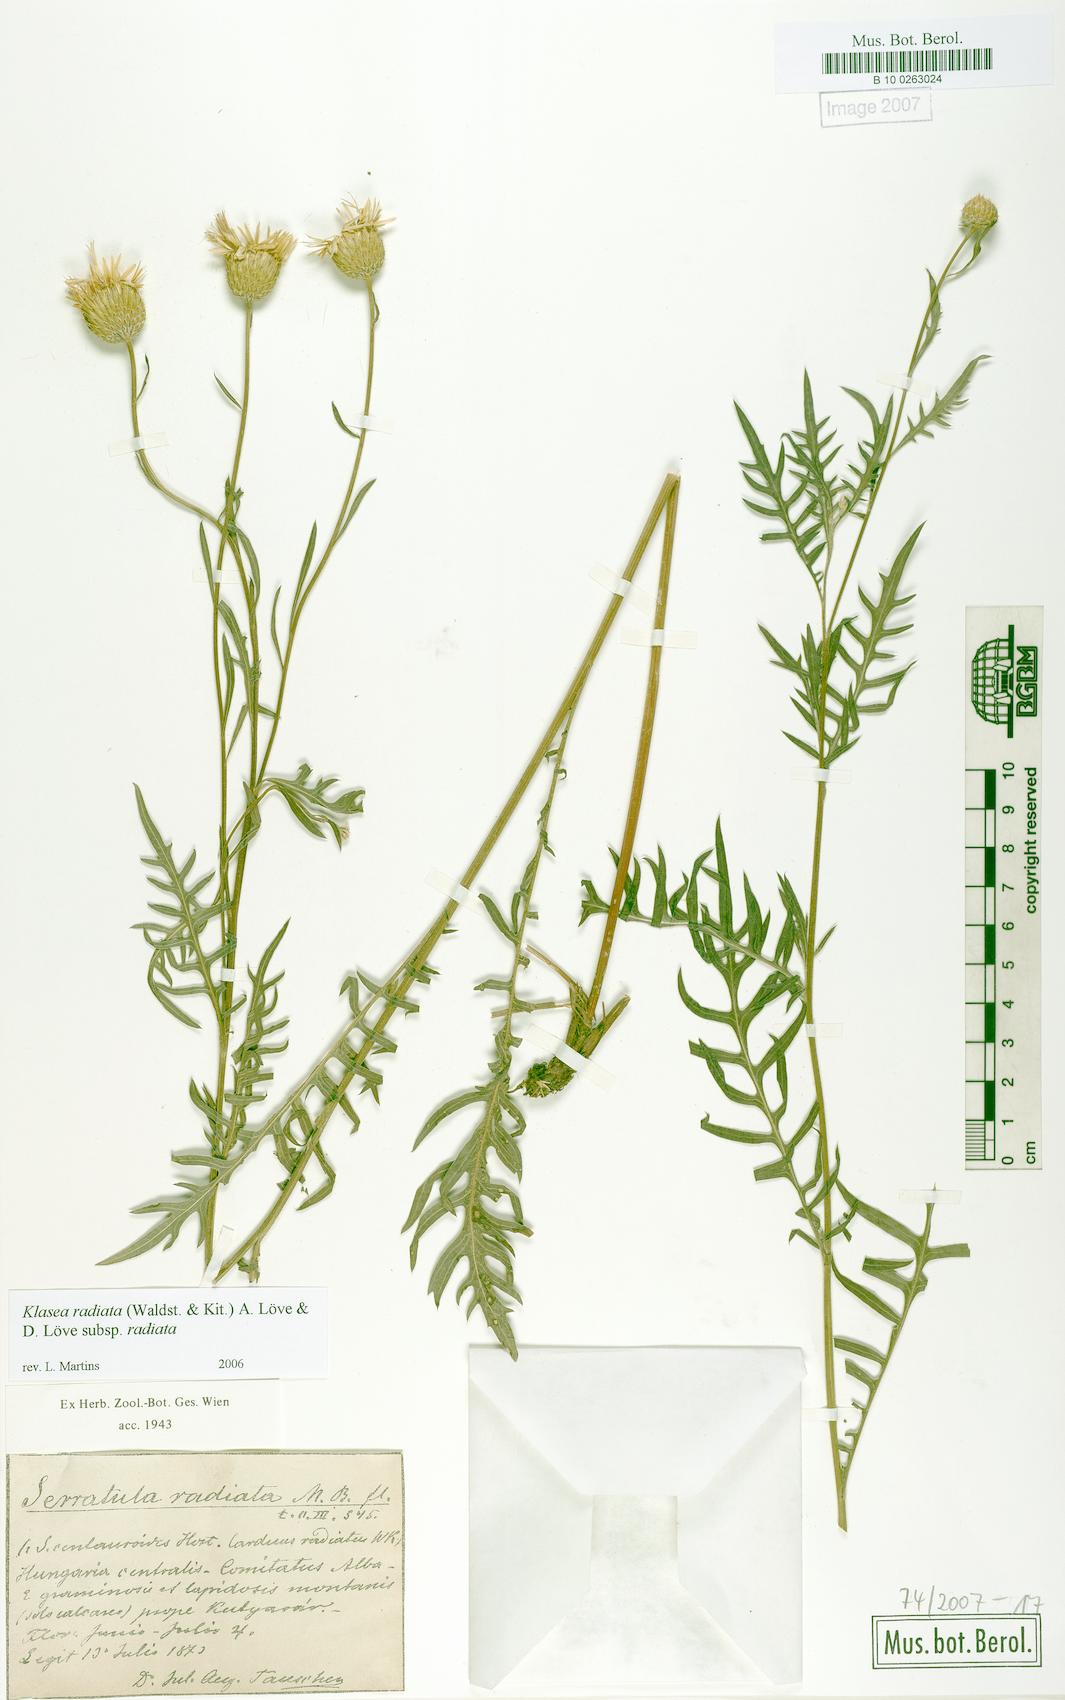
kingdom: Plantae
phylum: Tracheophyta
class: Magnoliopsida
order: Asterales
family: Asteraceae
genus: Klasea
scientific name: Klasea radiata
